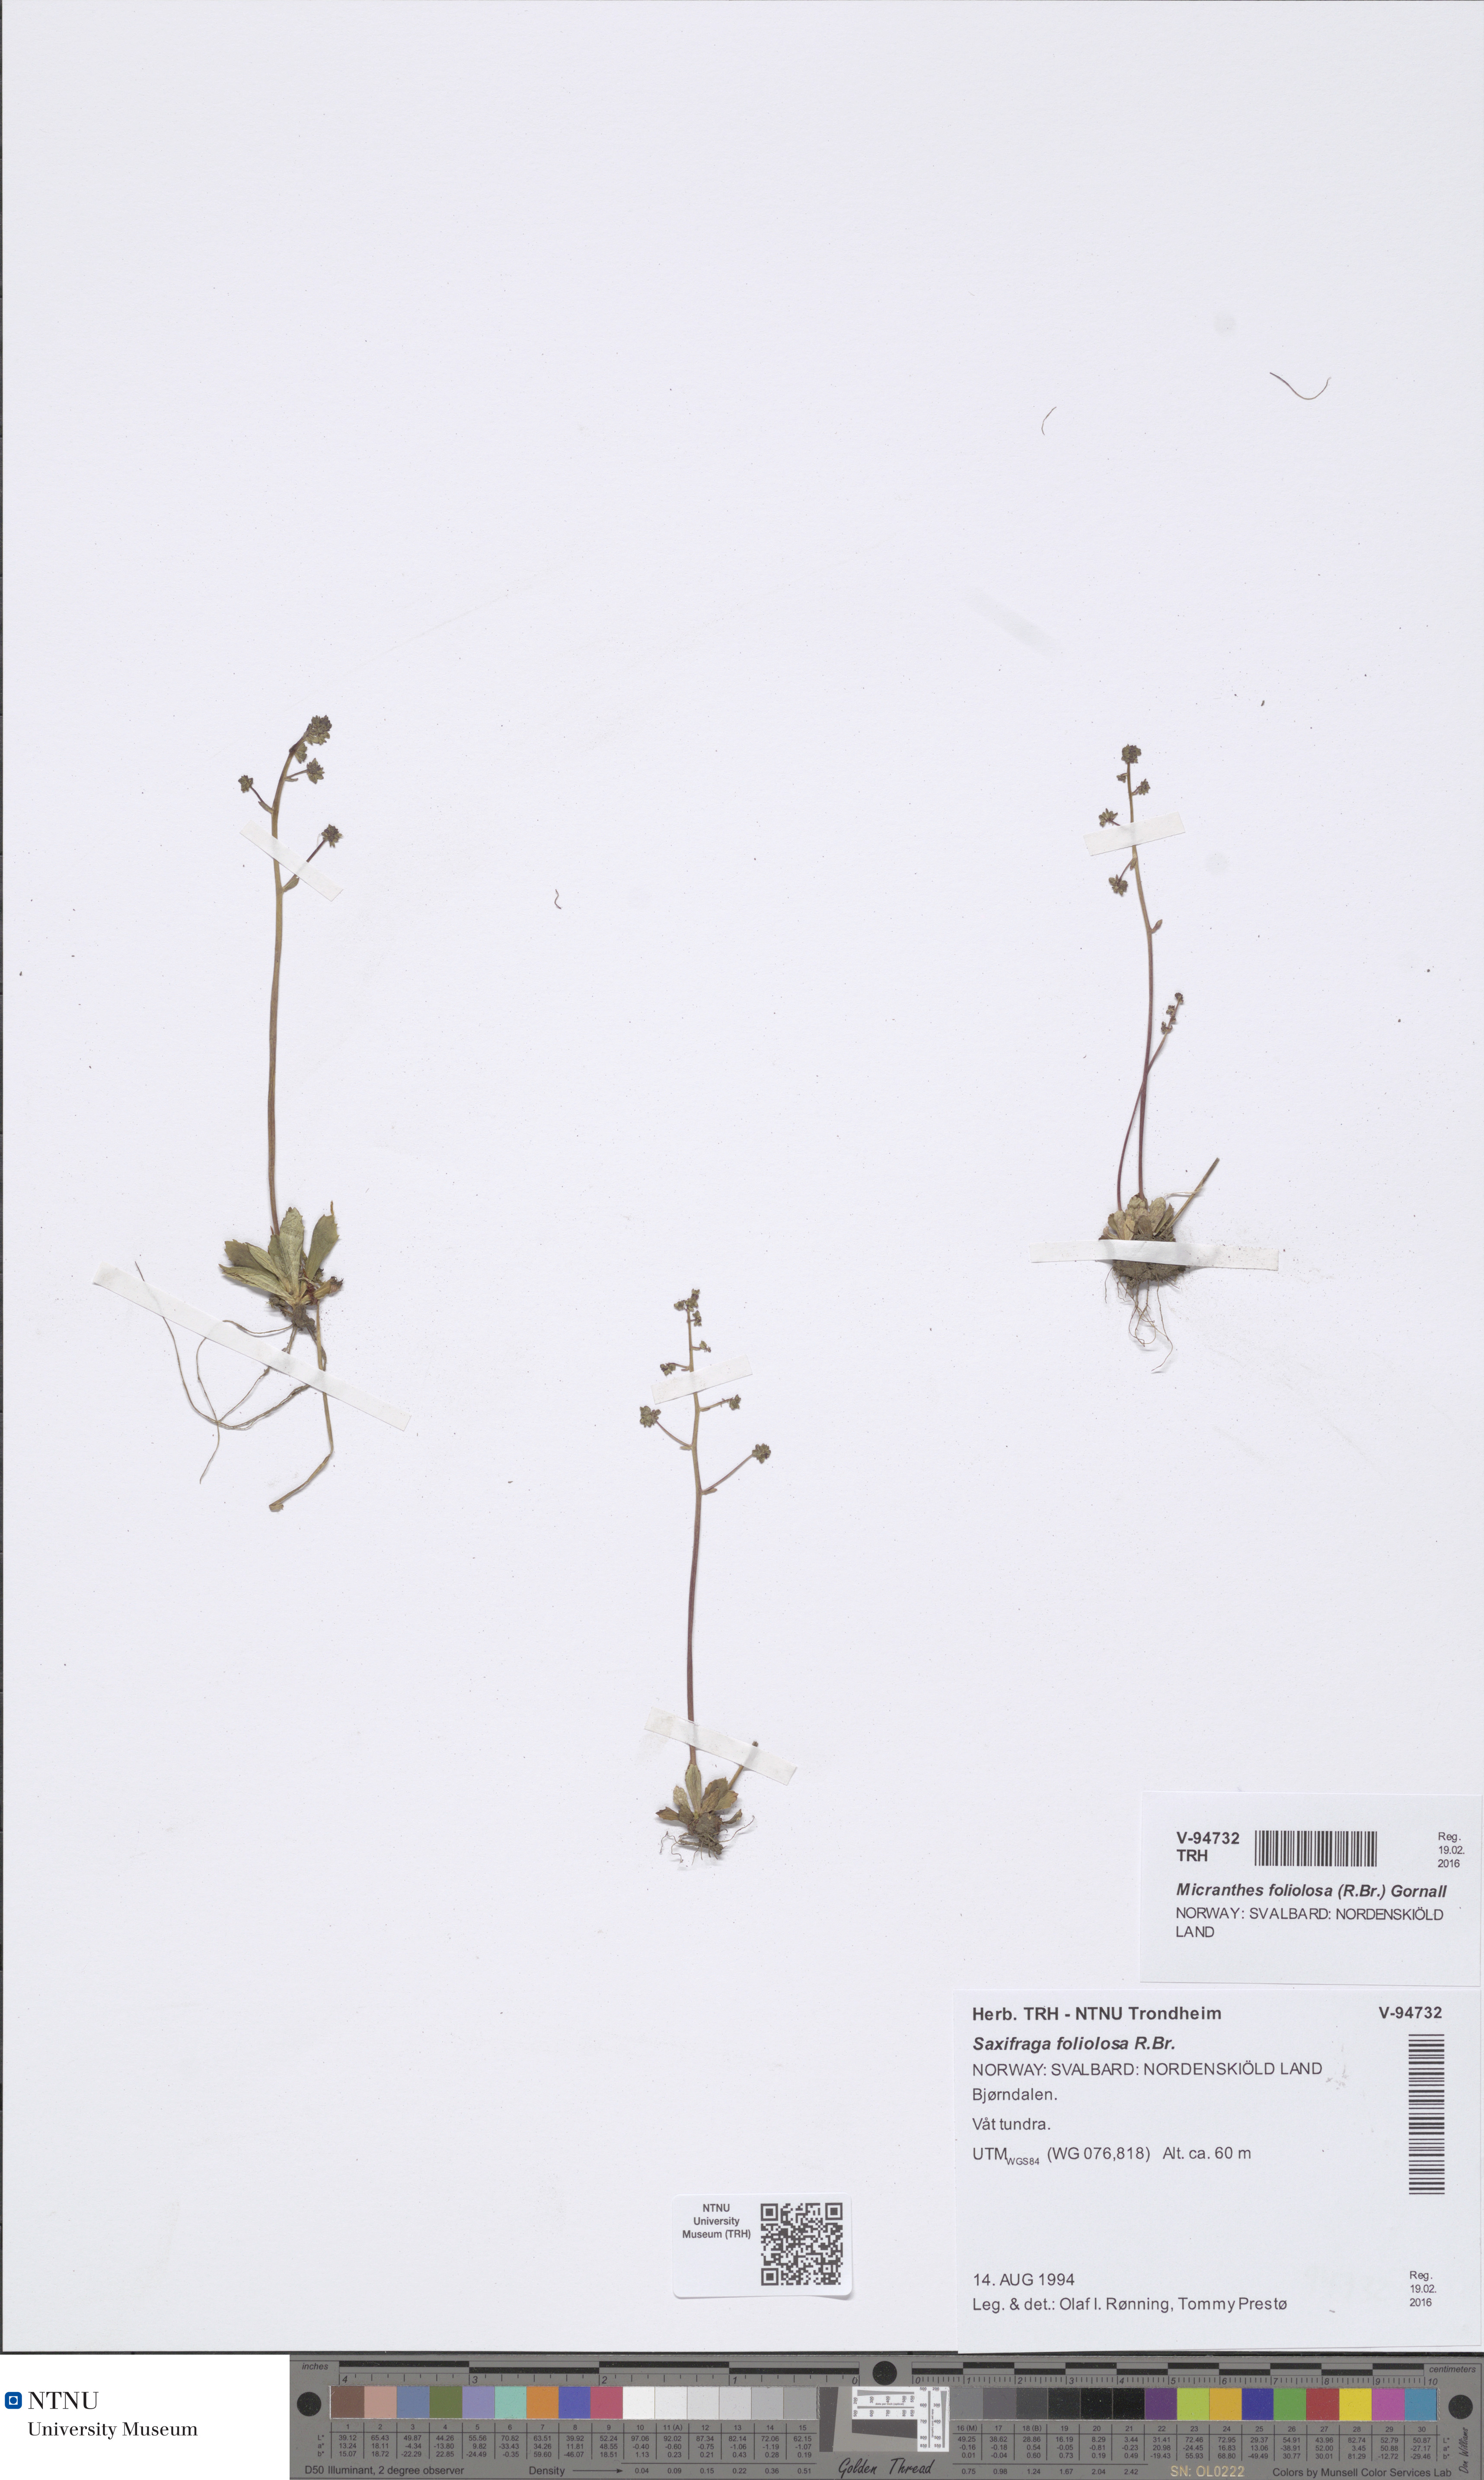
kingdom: Plantae
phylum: Tracheophyta
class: Magnoliopsida
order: Saxifragales
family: Saxifragaceae
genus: Micranthes
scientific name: Micranthes foliolosa
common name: Leafystem saxifrage
